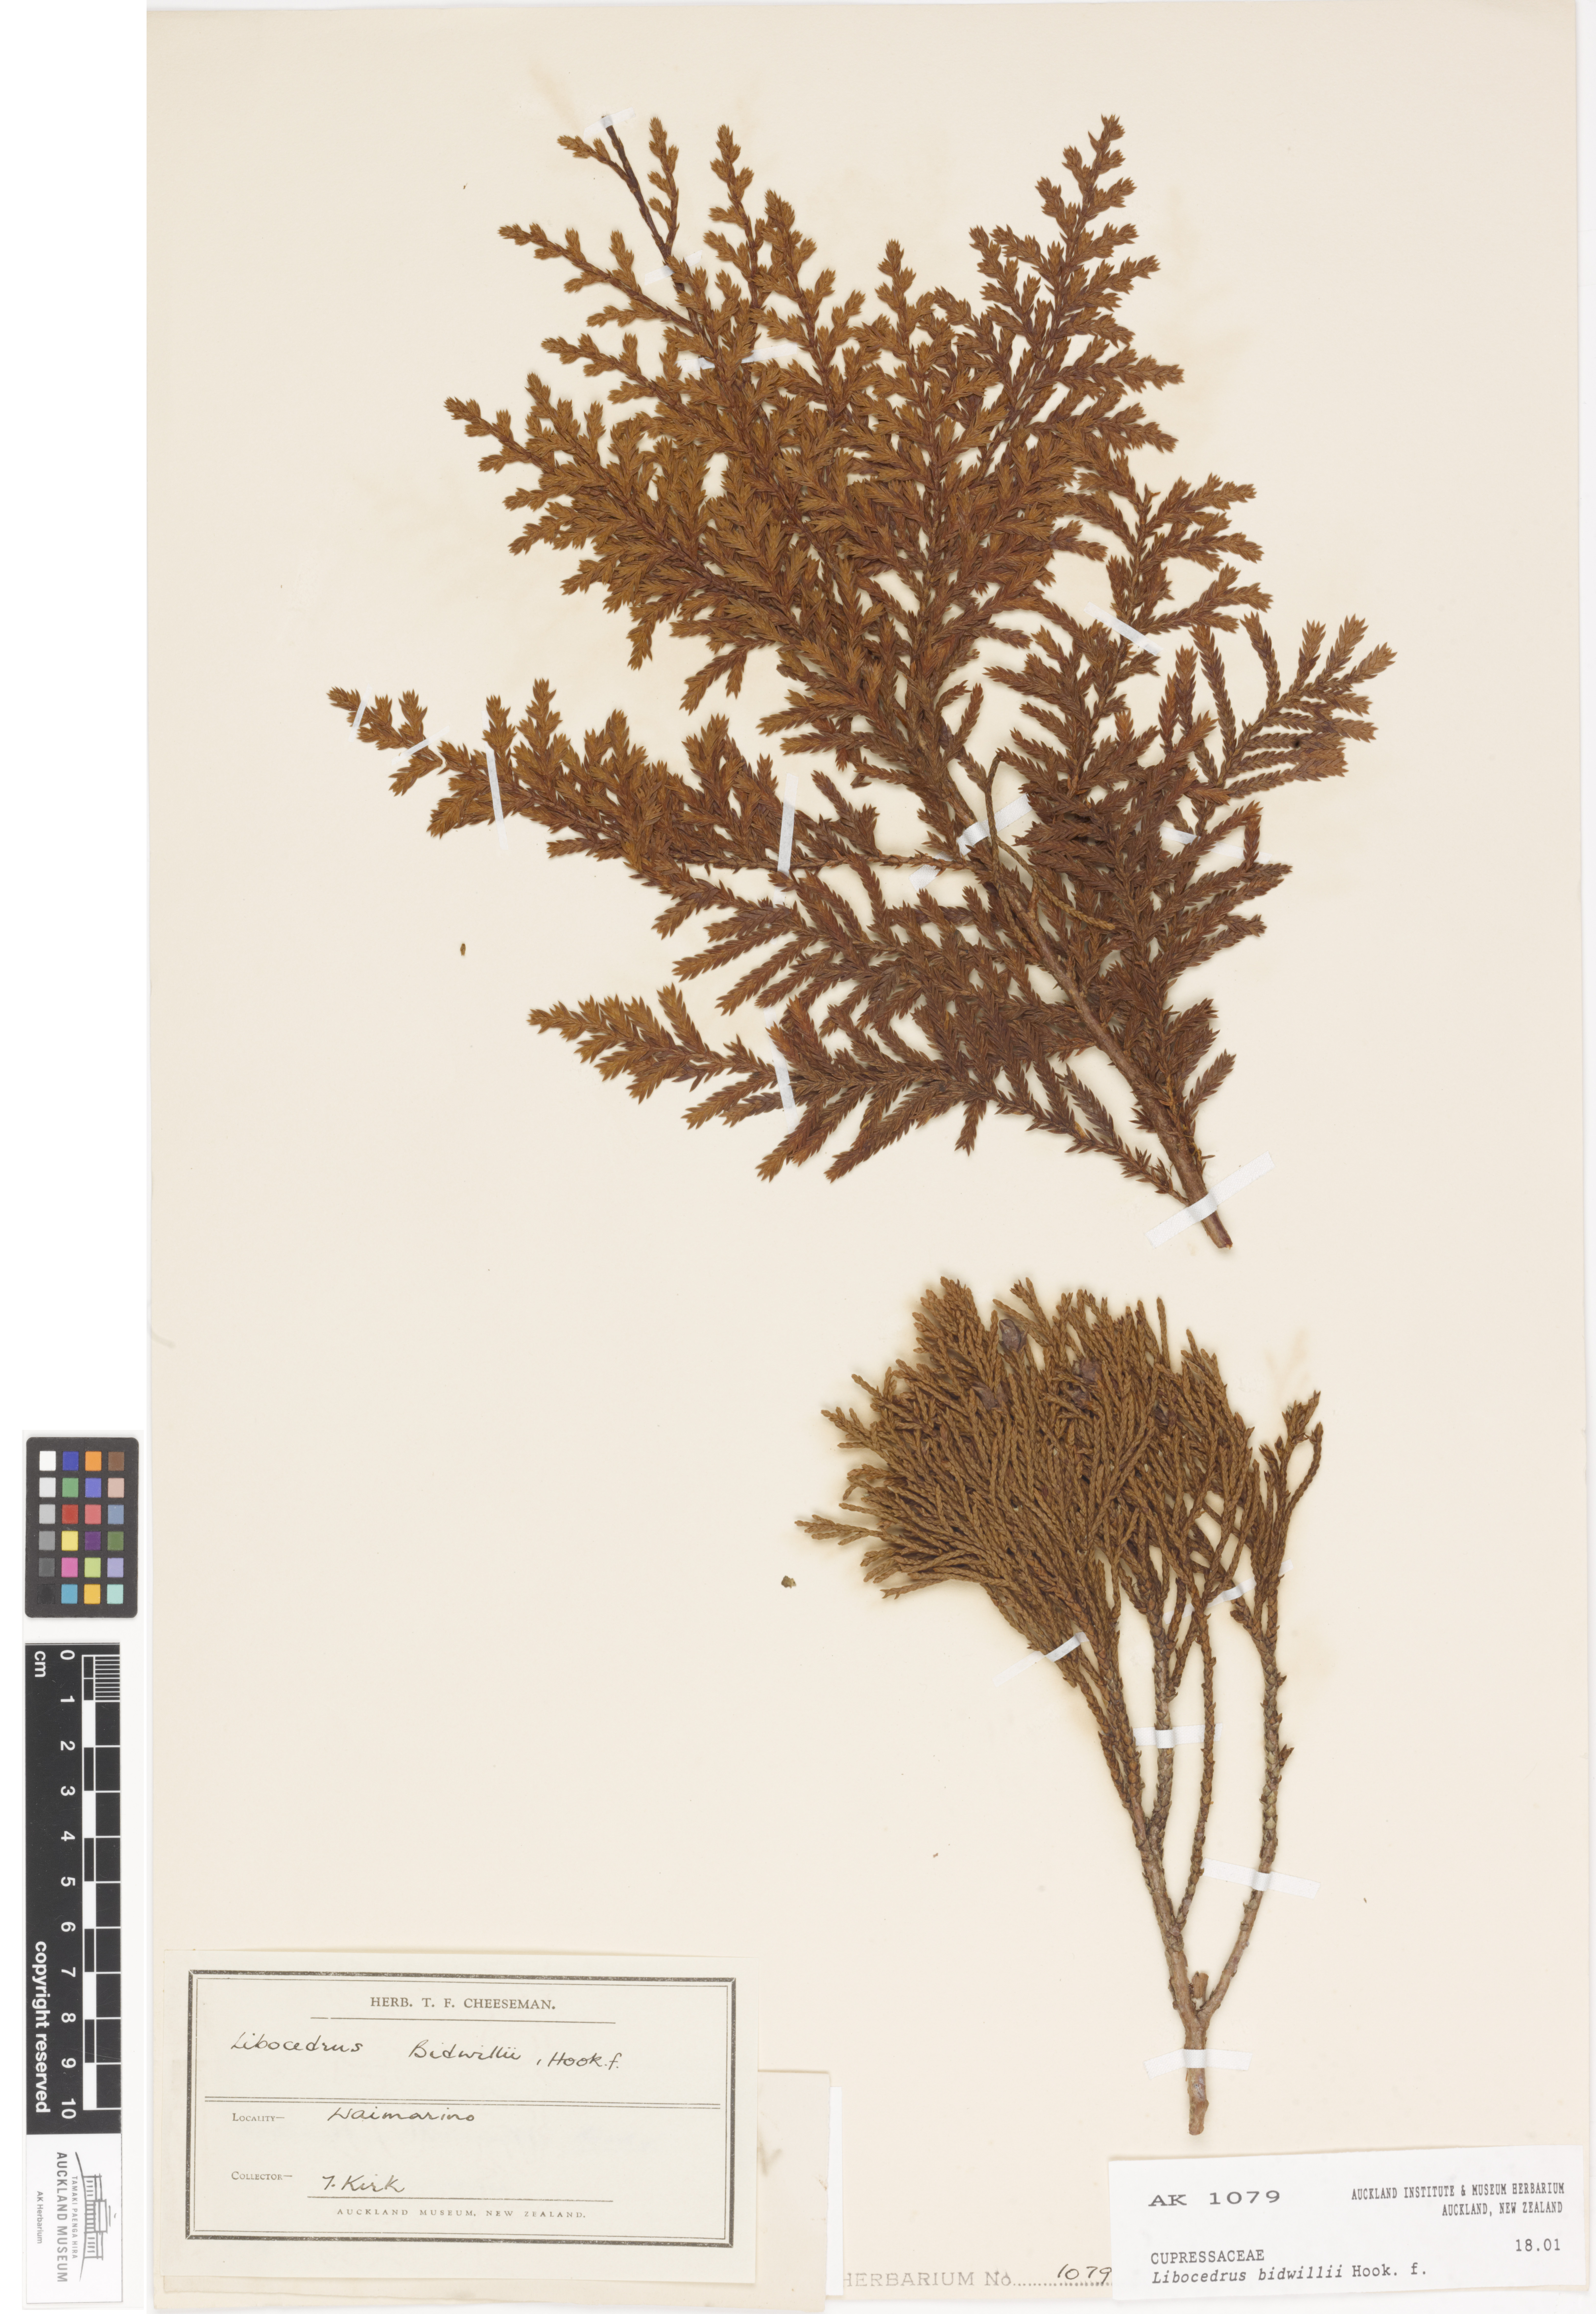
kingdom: Plantae
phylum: Tracheophyta
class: Pinopsida
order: Pinales
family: Cupressaceae
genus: Libocedrus
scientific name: Libocedrus bidwillii
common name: Cedar
